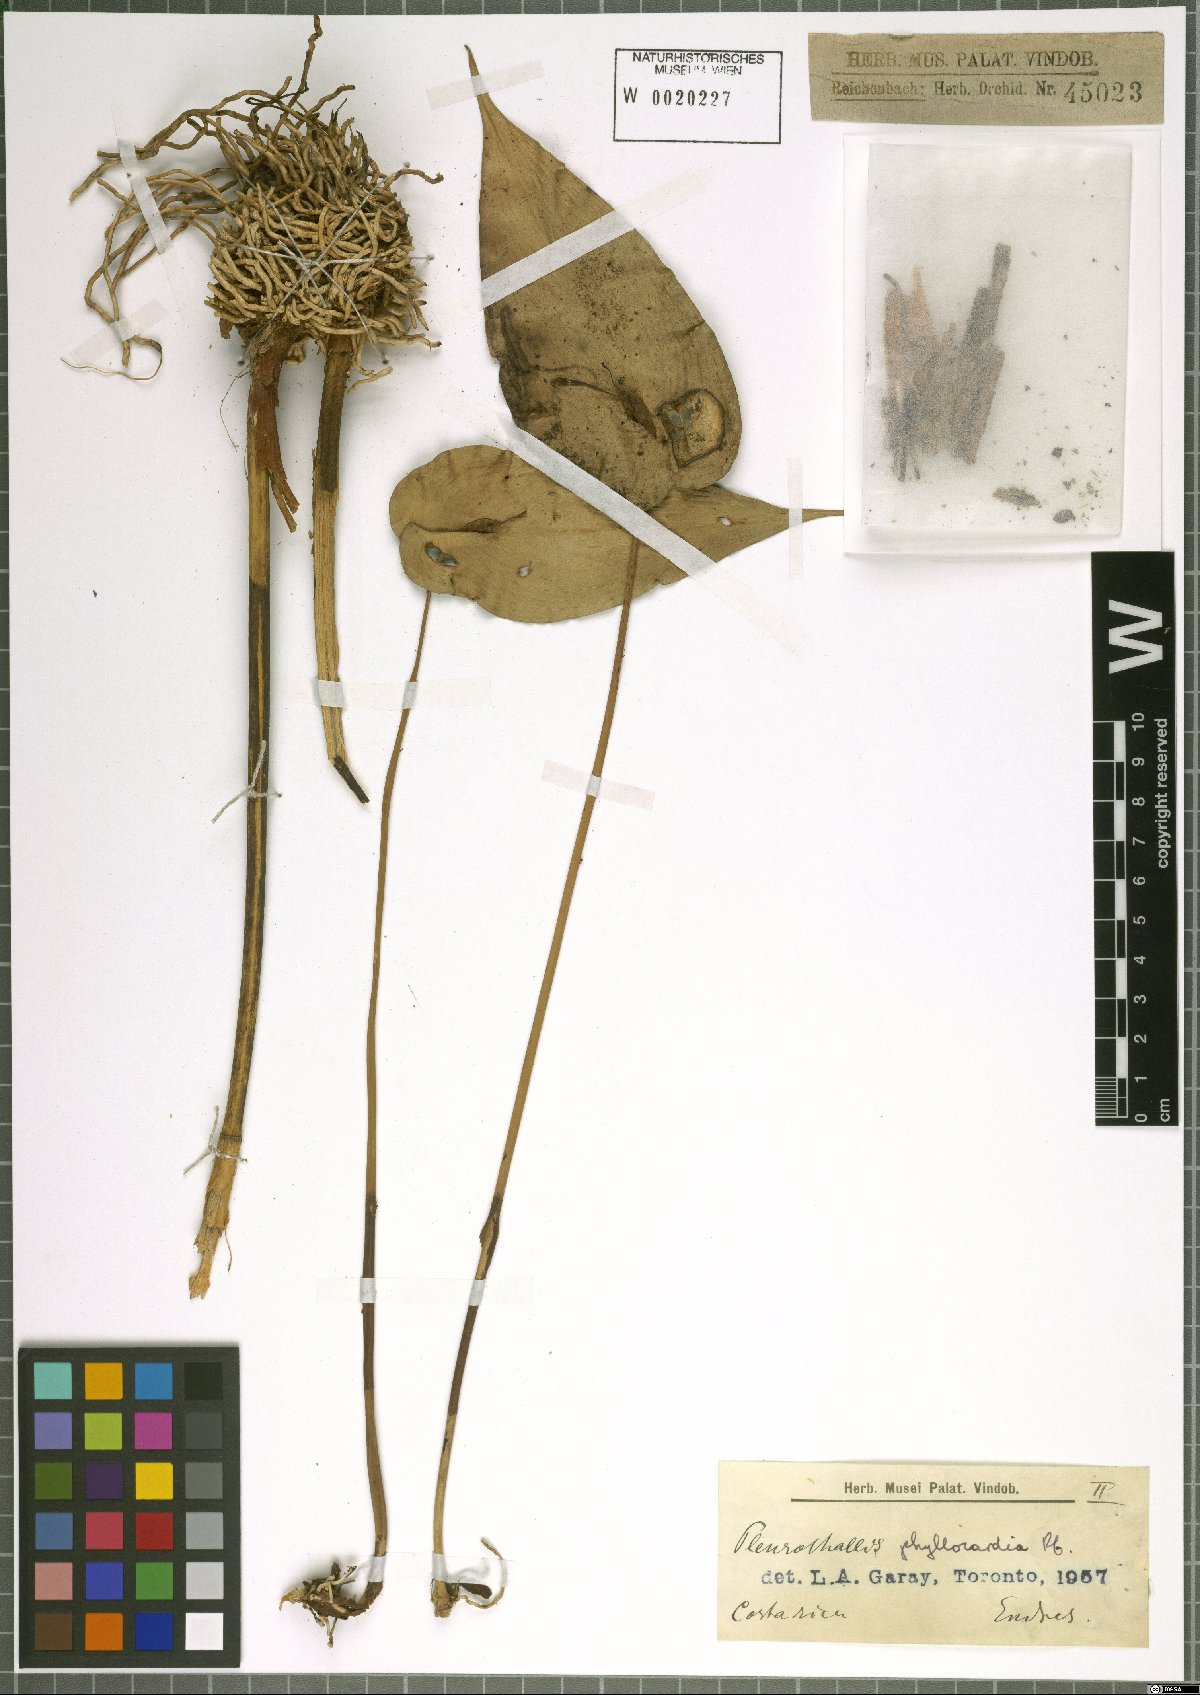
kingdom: Plantae
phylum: Tracheophyta
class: Liliopsida
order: Asparagales
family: Orchidaceae
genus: Pleurothallis
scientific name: Pleurothallis phyllocardia
